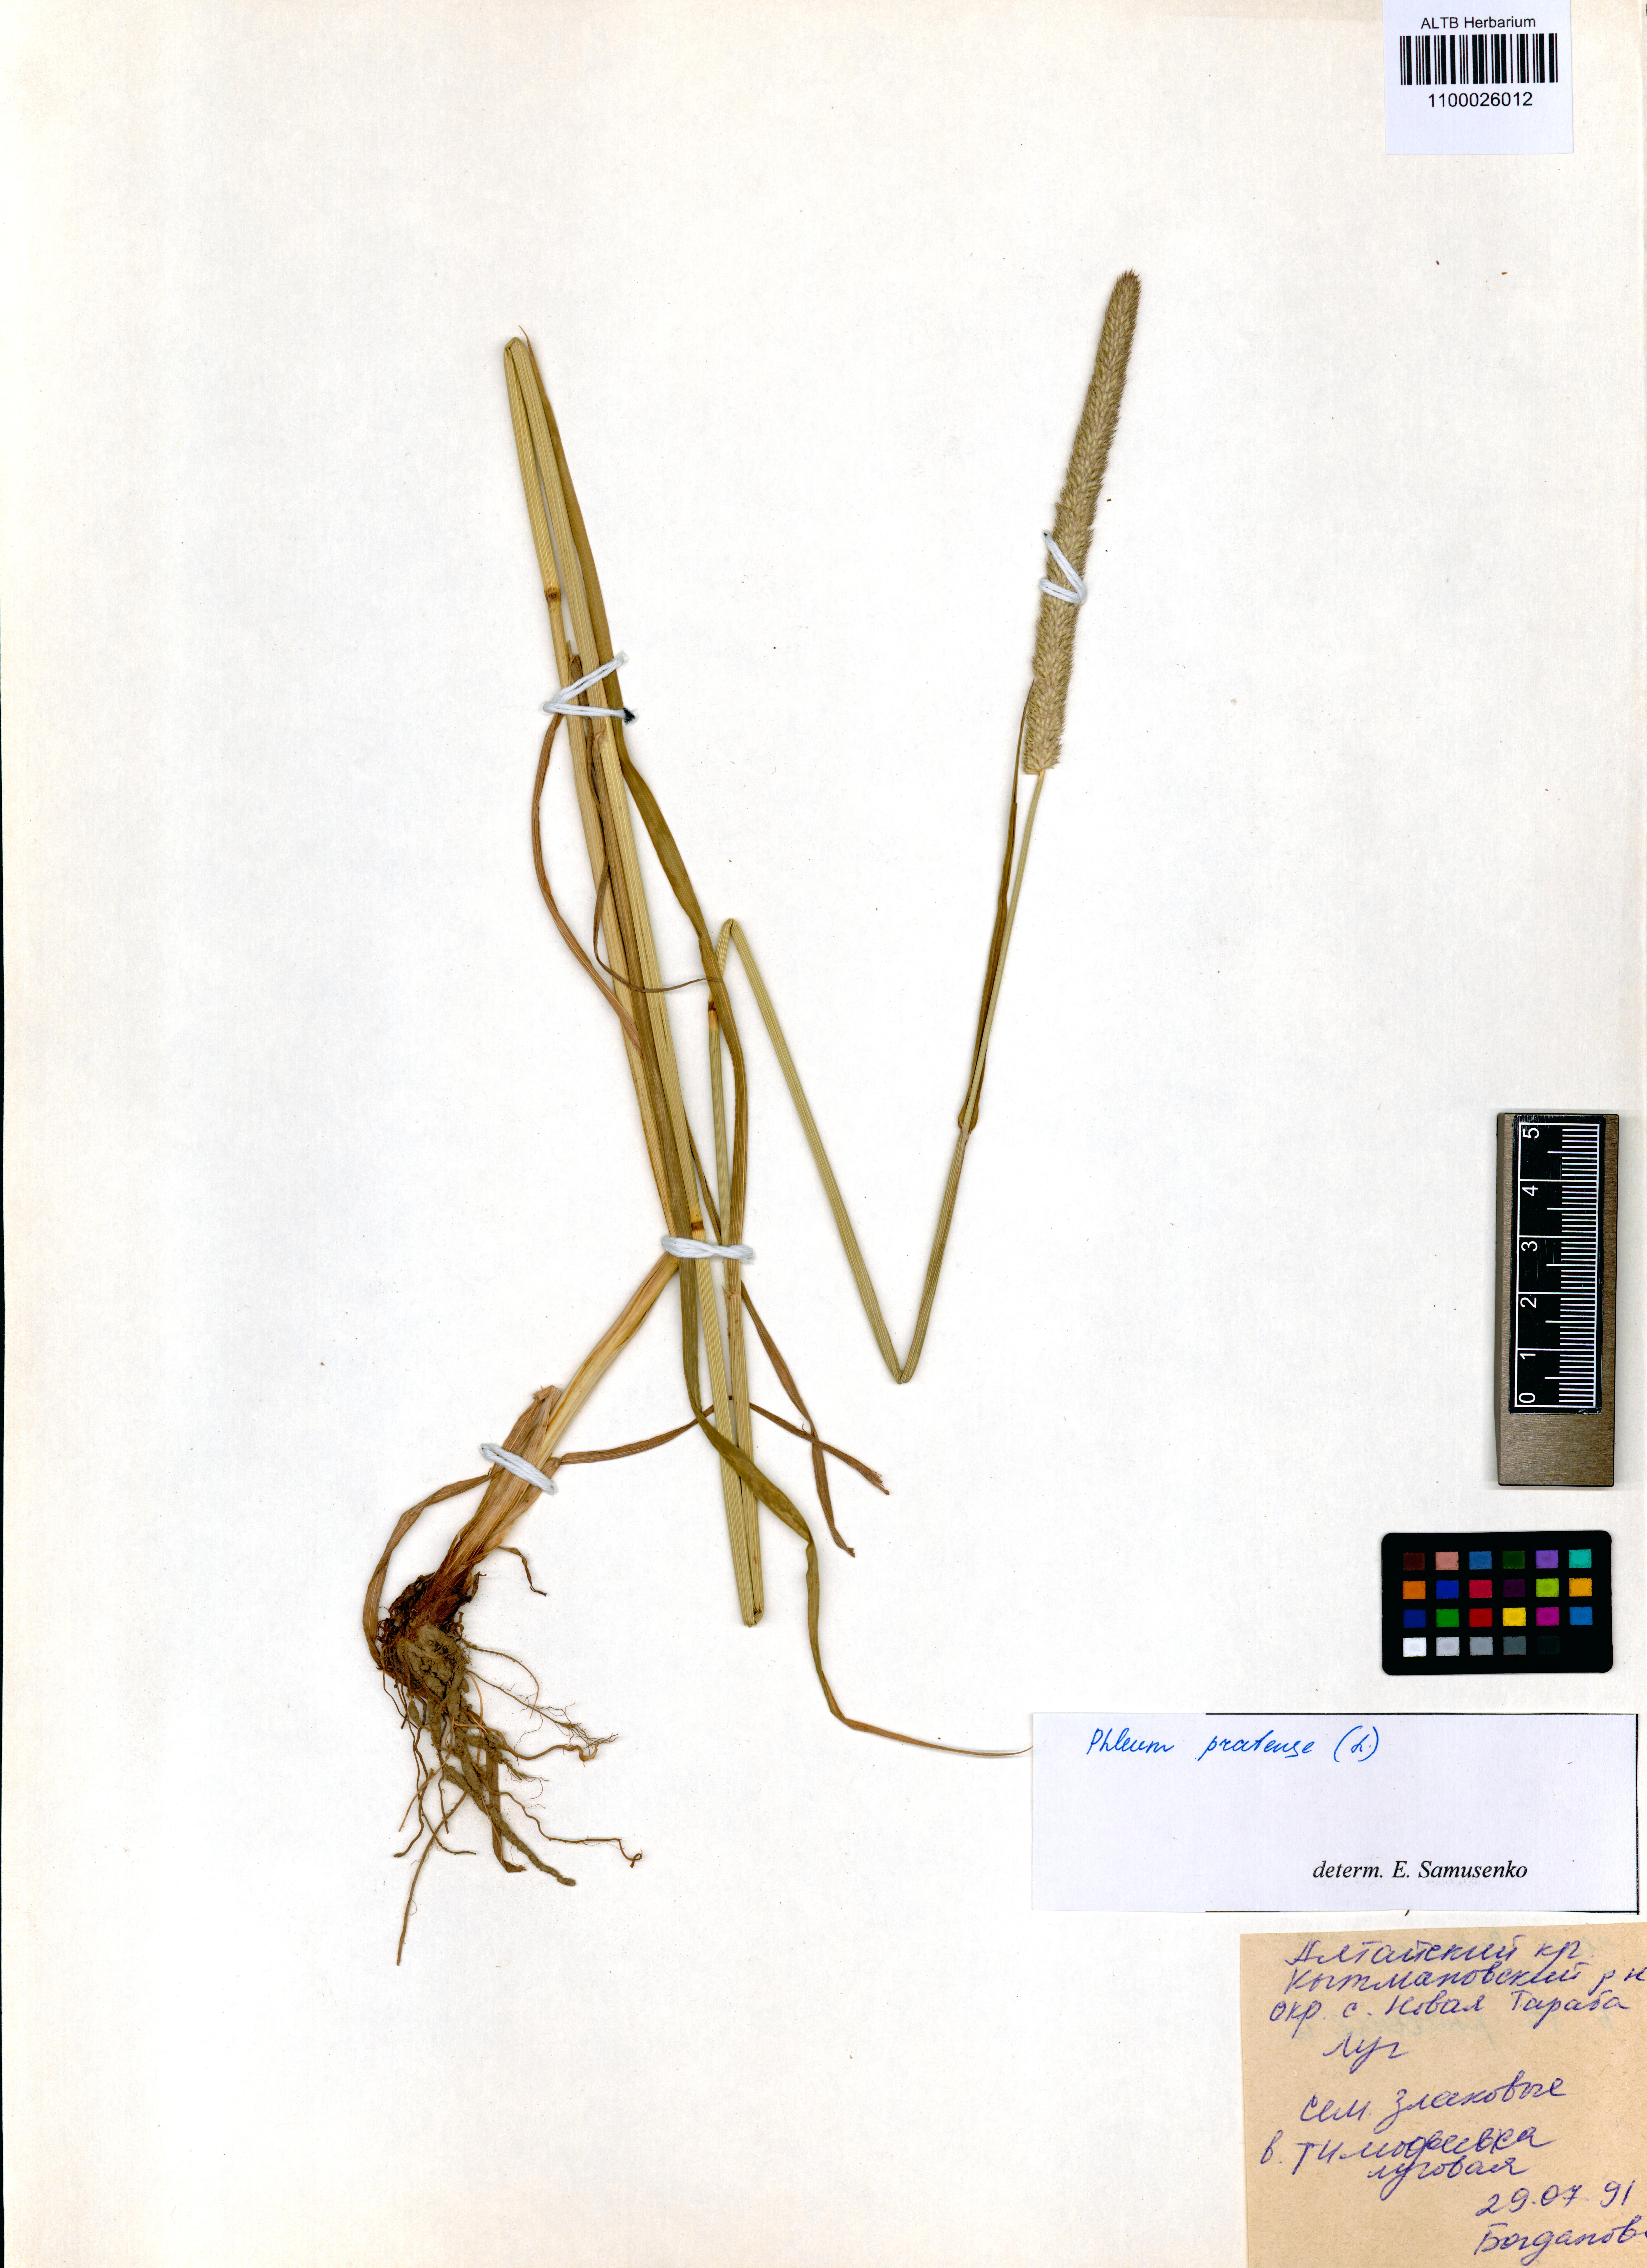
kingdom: Plantae
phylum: Tracheophyta
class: Liliopsida
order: Poales
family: Poaceae
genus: Phleum
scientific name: Phleum pratense
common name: Timothy grass
